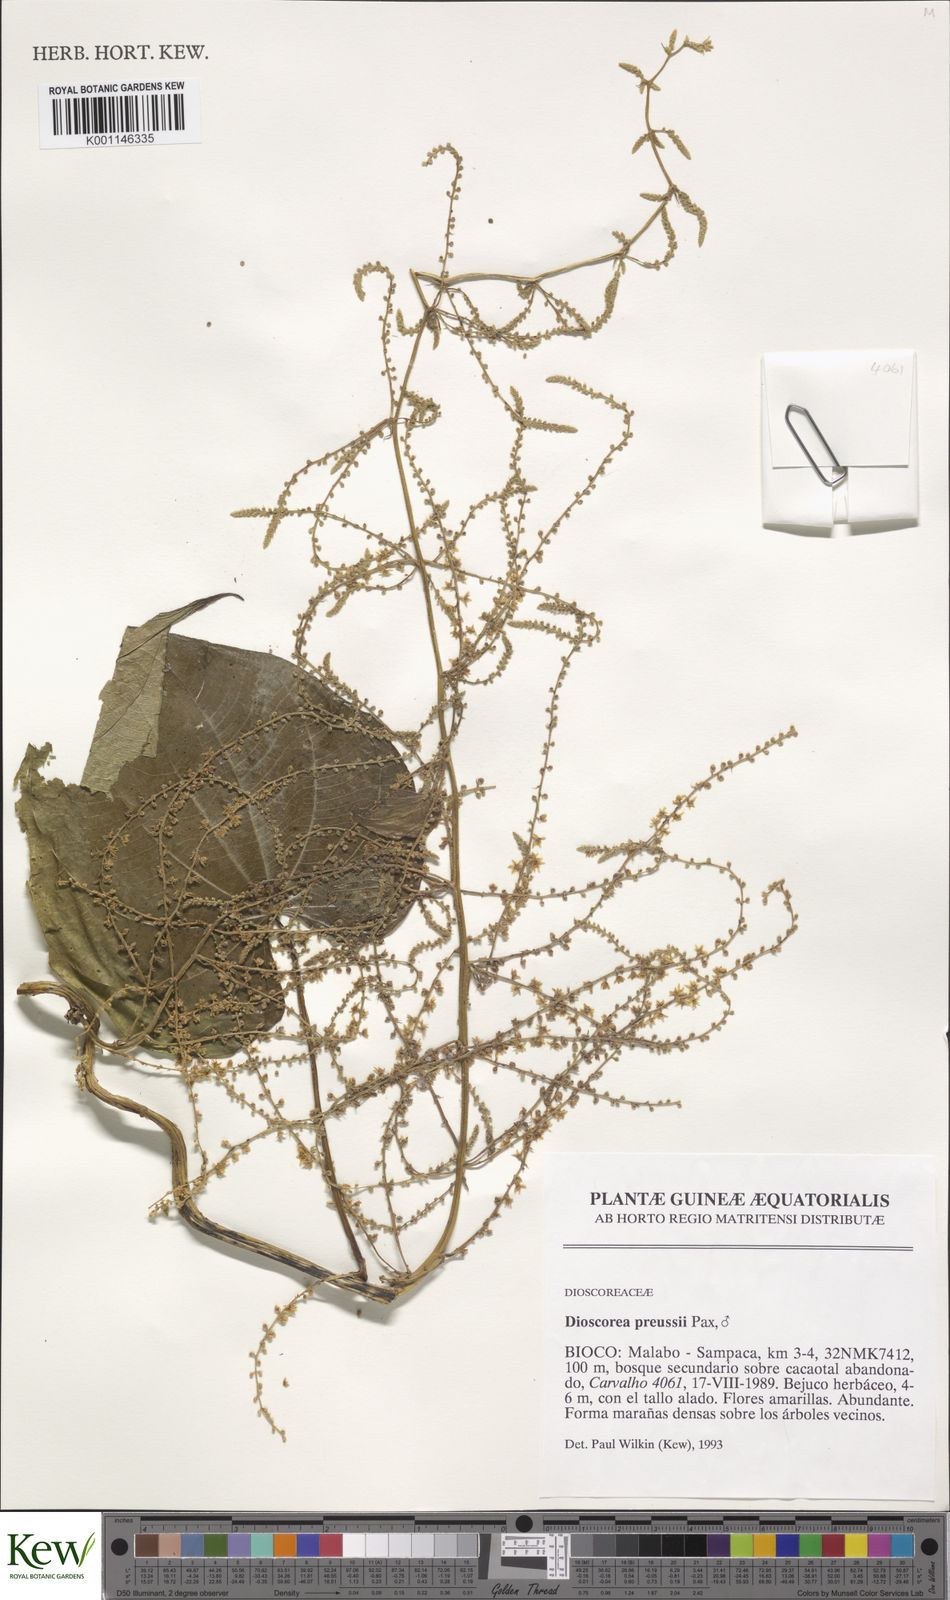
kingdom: Plantae
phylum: Tracheophyta
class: Liliopsida
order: Dioscoreales
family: Dioscoreaceae
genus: Dioscorea
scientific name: Dioscorea preussii
